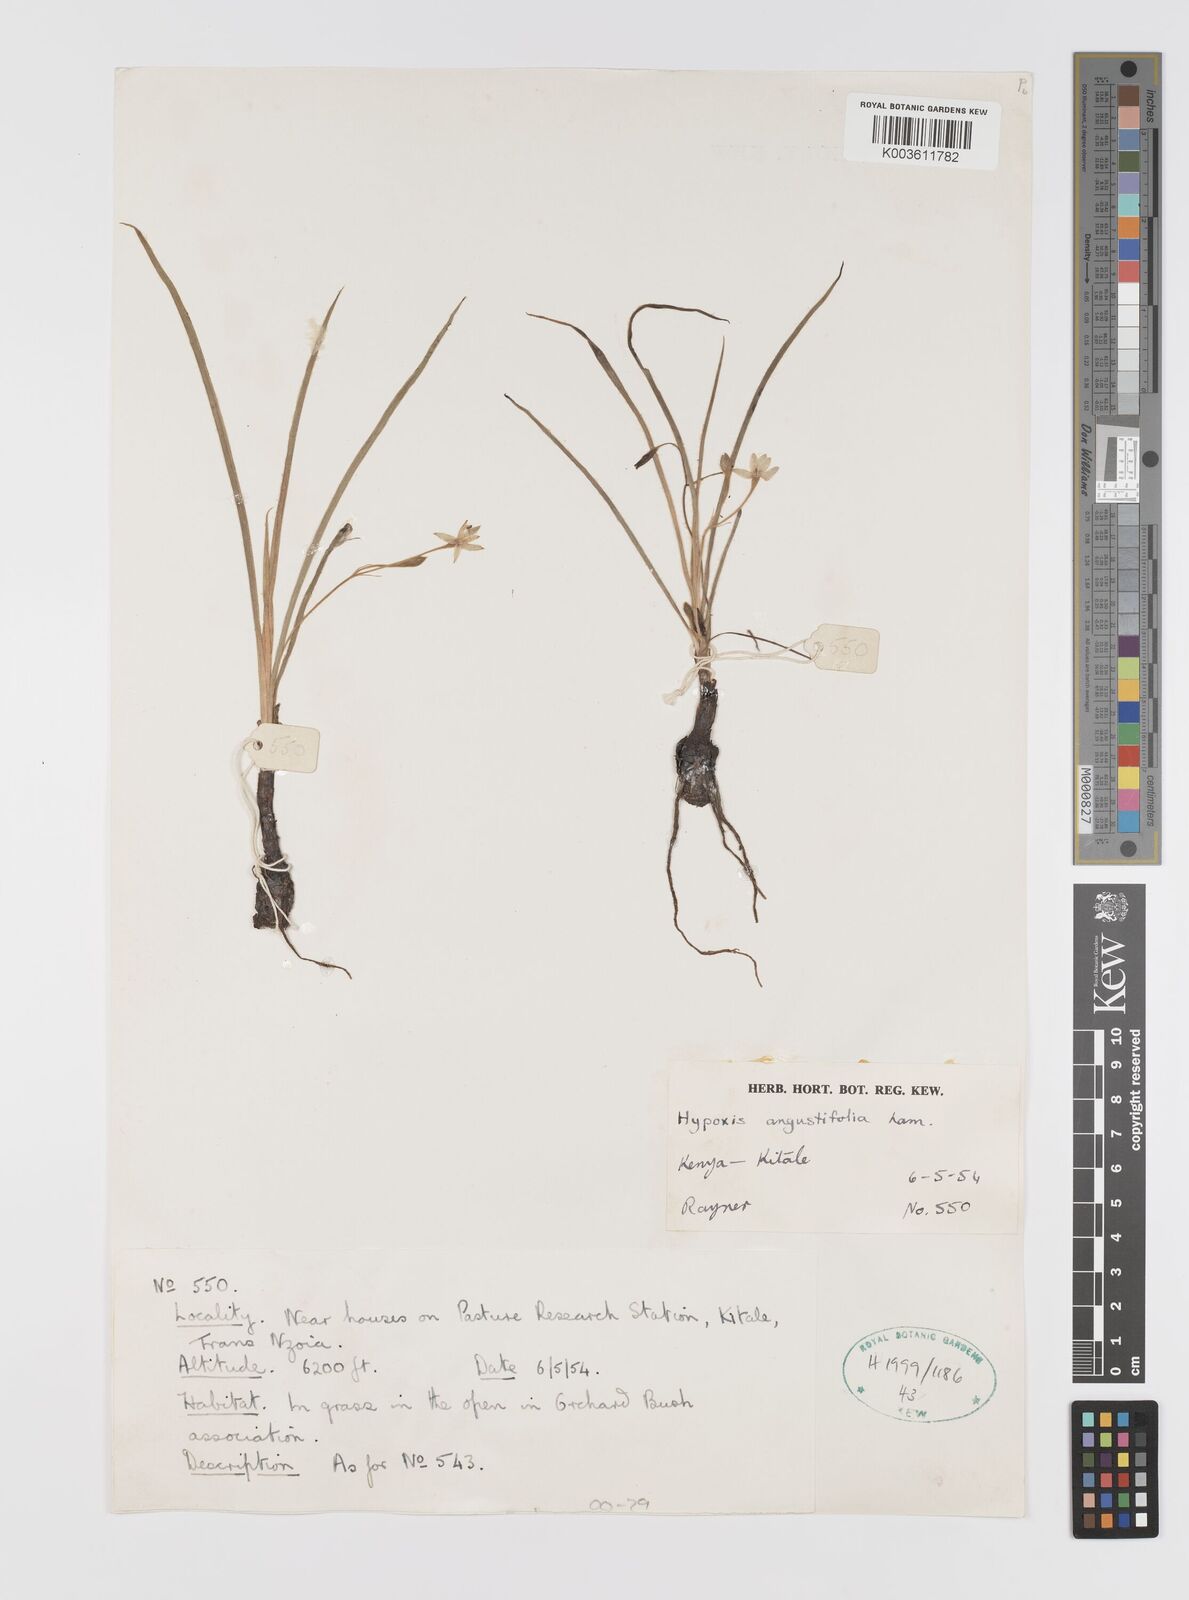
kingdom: Plantae
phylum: Tracheophyta
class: Liliopsida
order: Asparagales
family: Hypoxidaceae
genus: Hypoxis
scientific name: Hypoxis angustifolia
